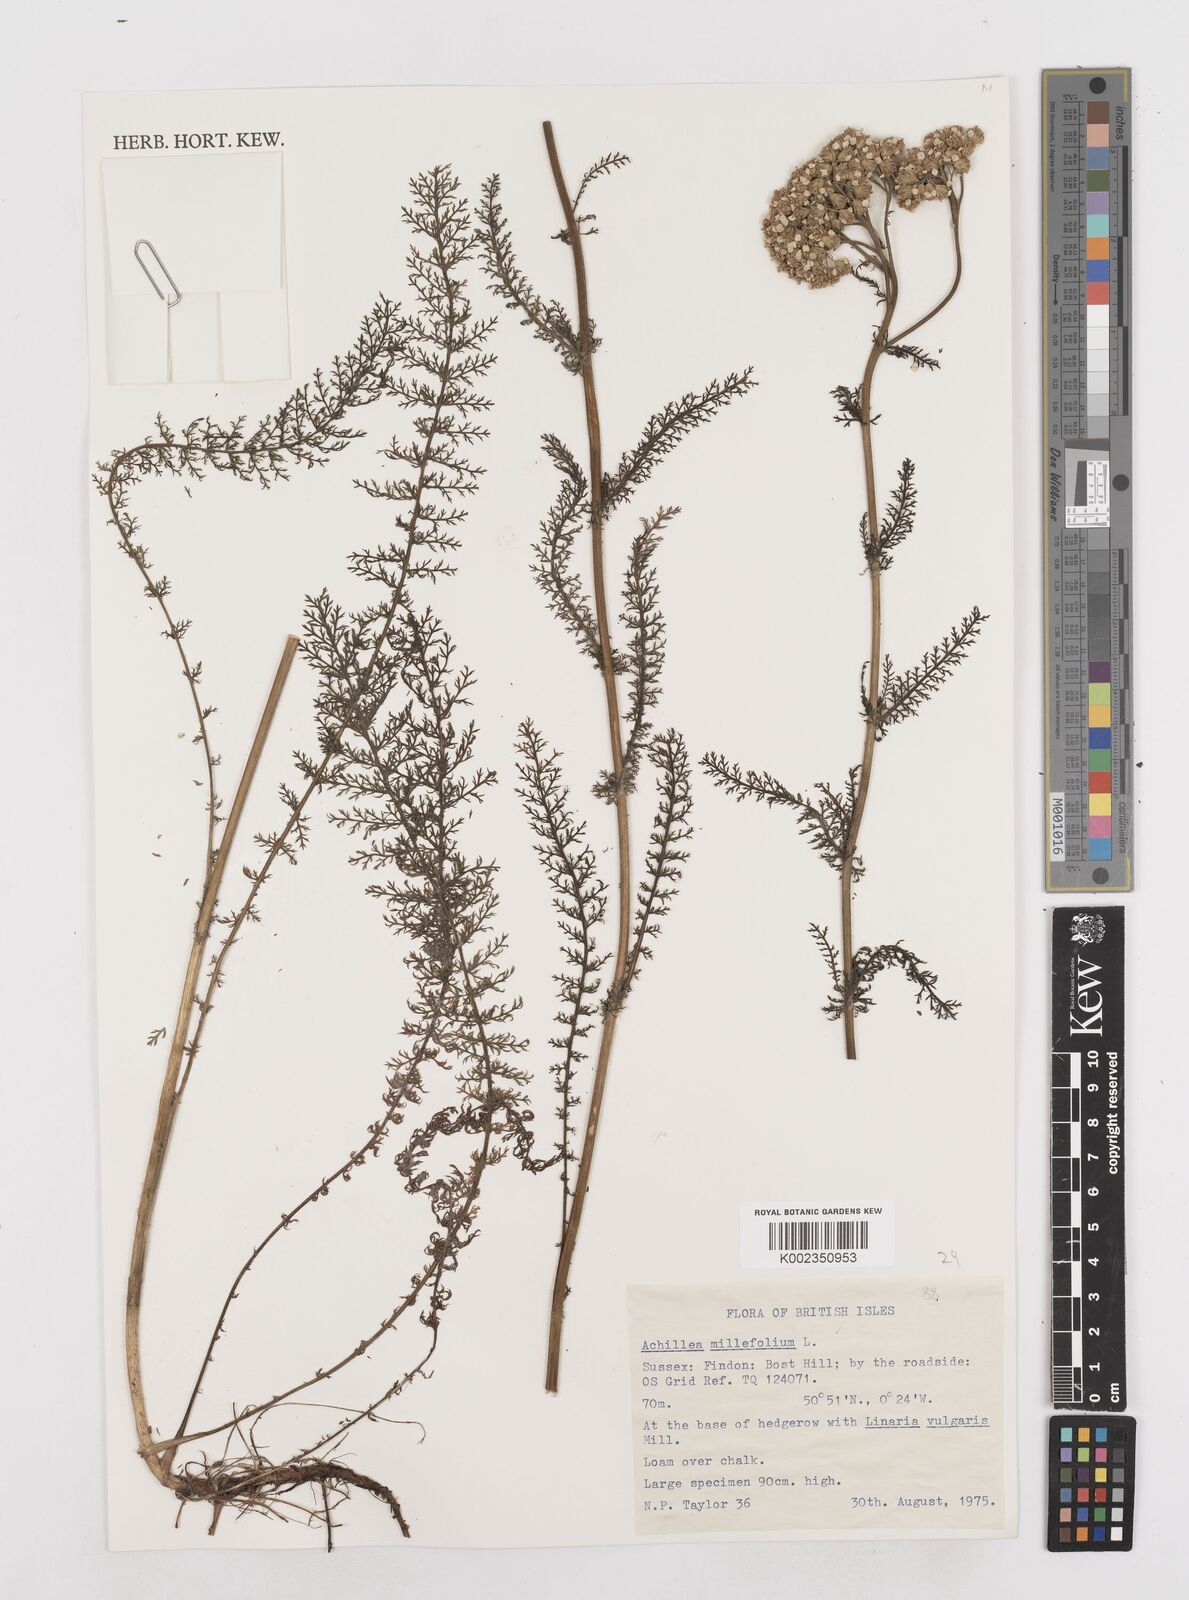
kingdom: Plantae
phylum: Tracheophyta
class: Magnoliopsida
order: Asterales
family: Asteraceae
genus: Achillea
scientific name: Achillea millefolium
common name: Yarrow
